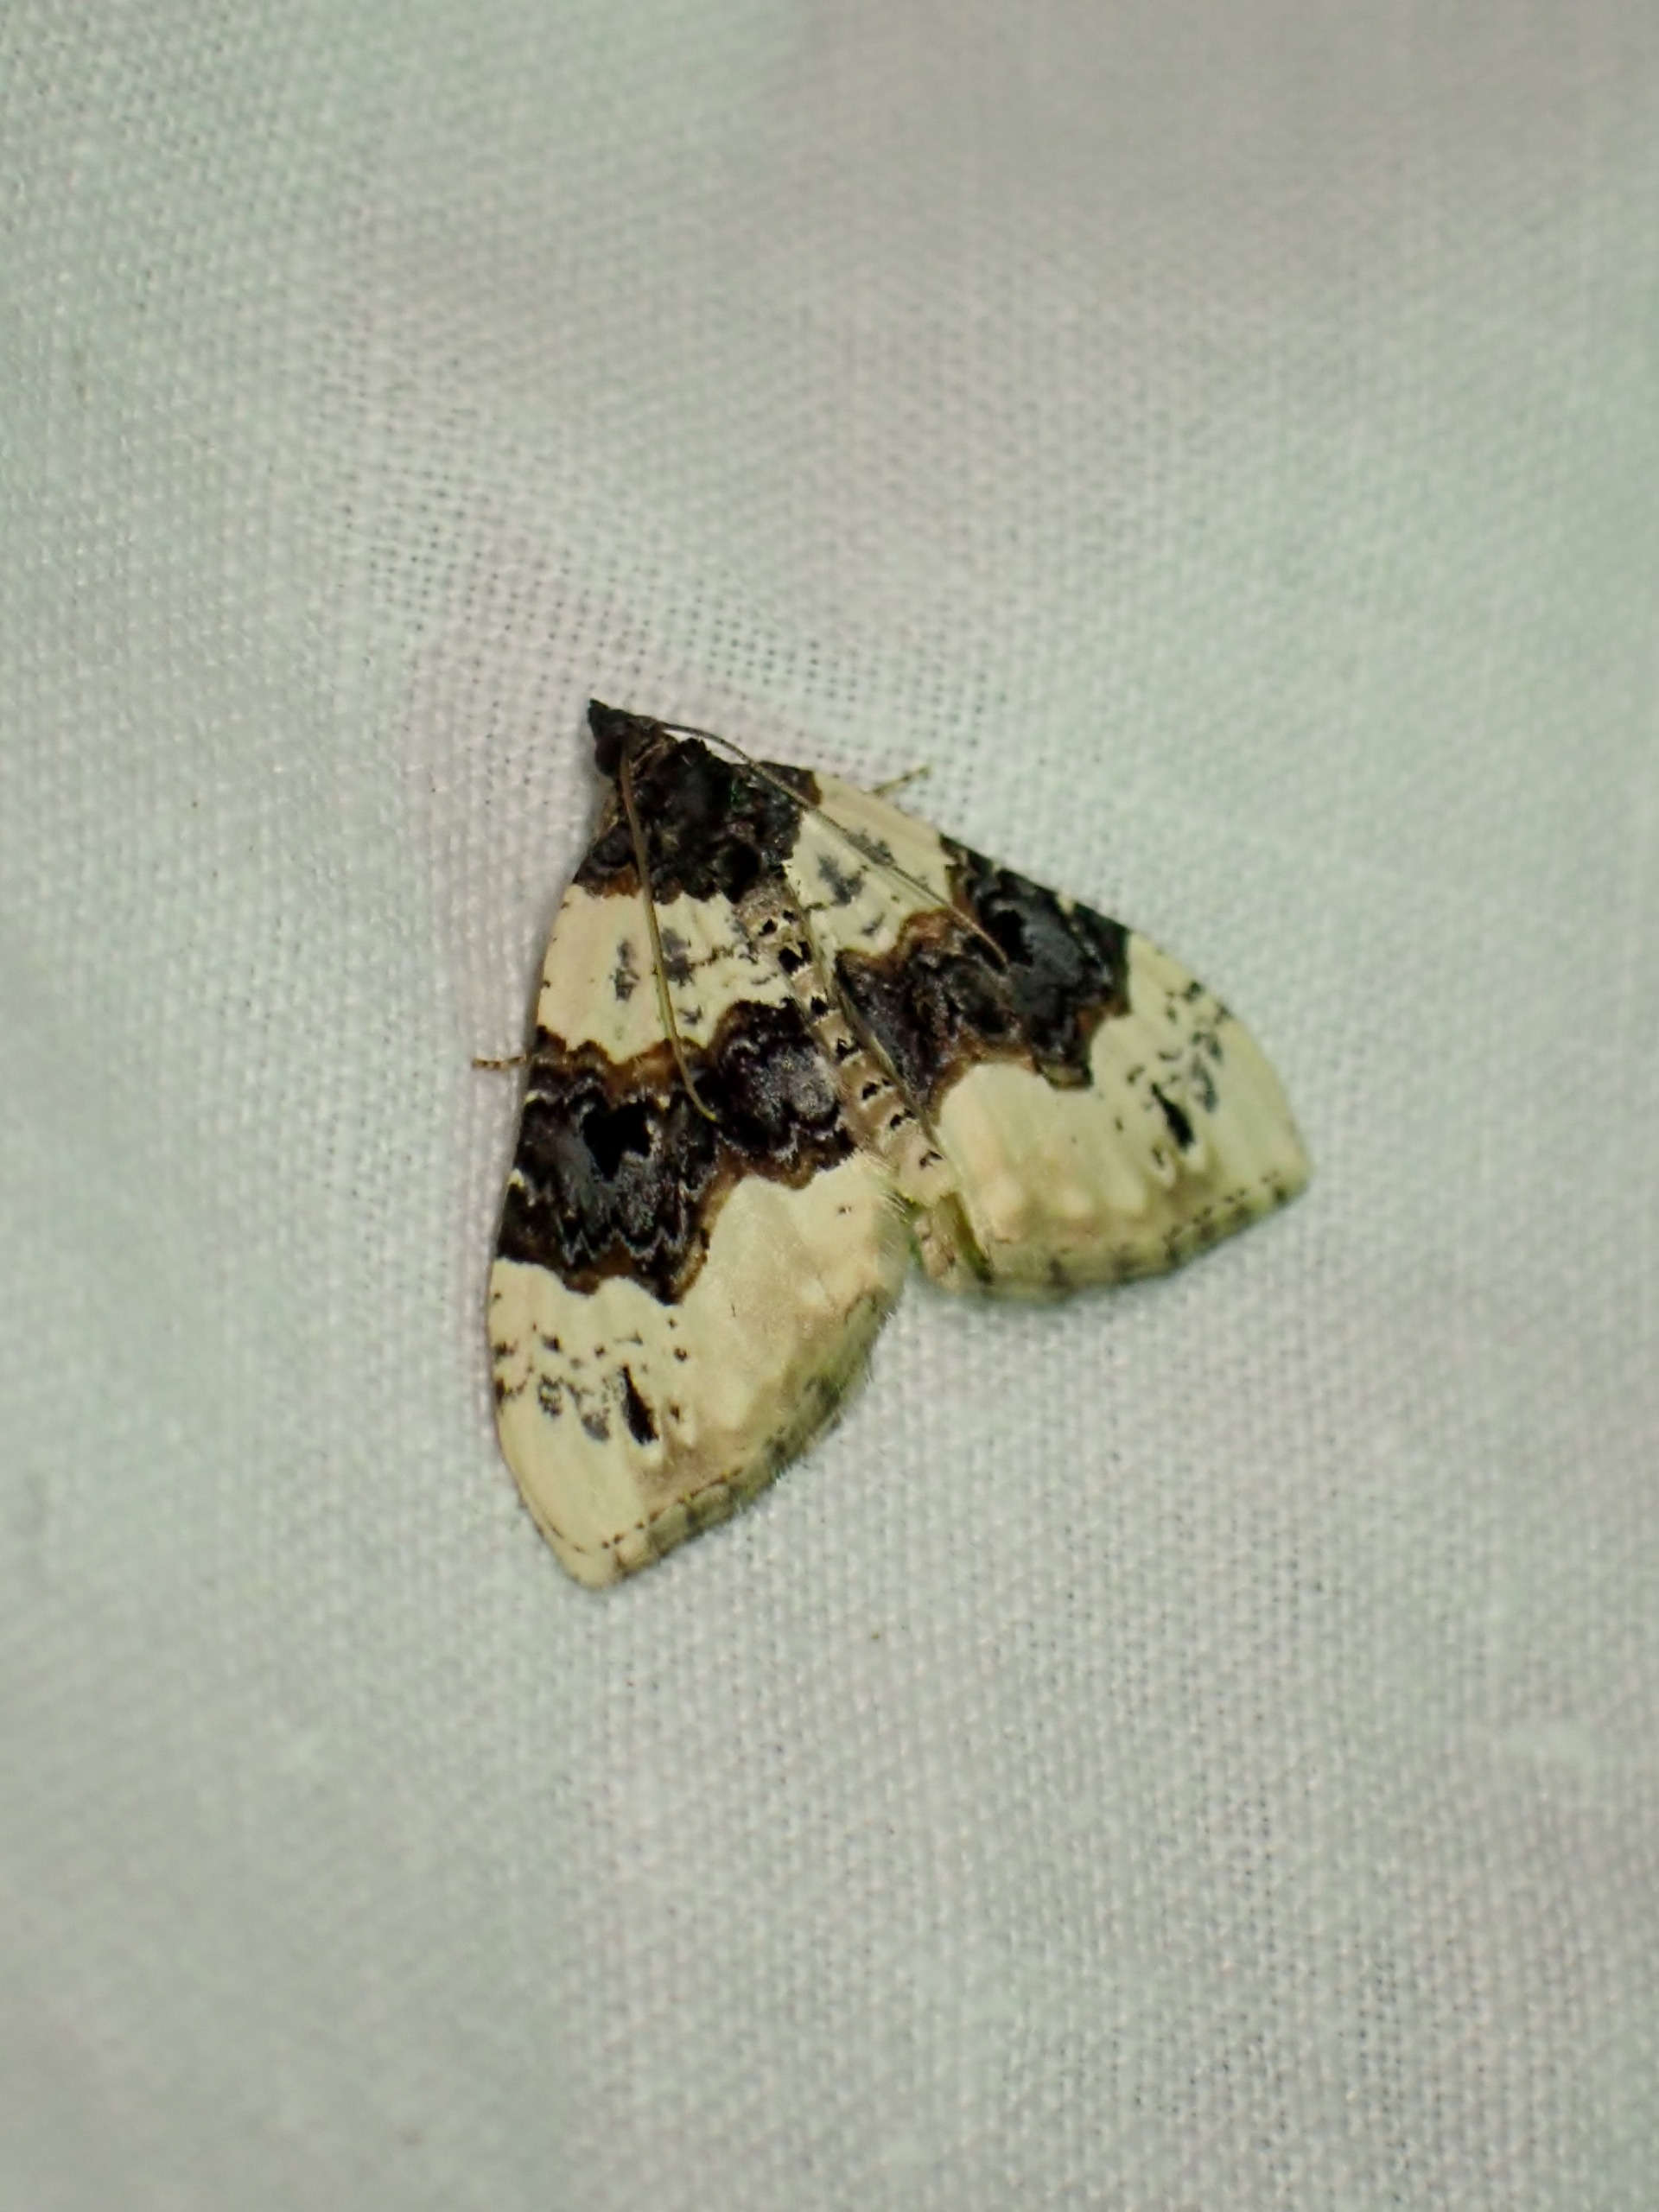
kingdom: Animalia
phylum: Arthropoda
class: Insecta
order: Lepidoptera
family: Geometridae
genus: Cosmorhoe
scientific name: Cosmorhoe ocellata
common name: Snerre-bladmåler
